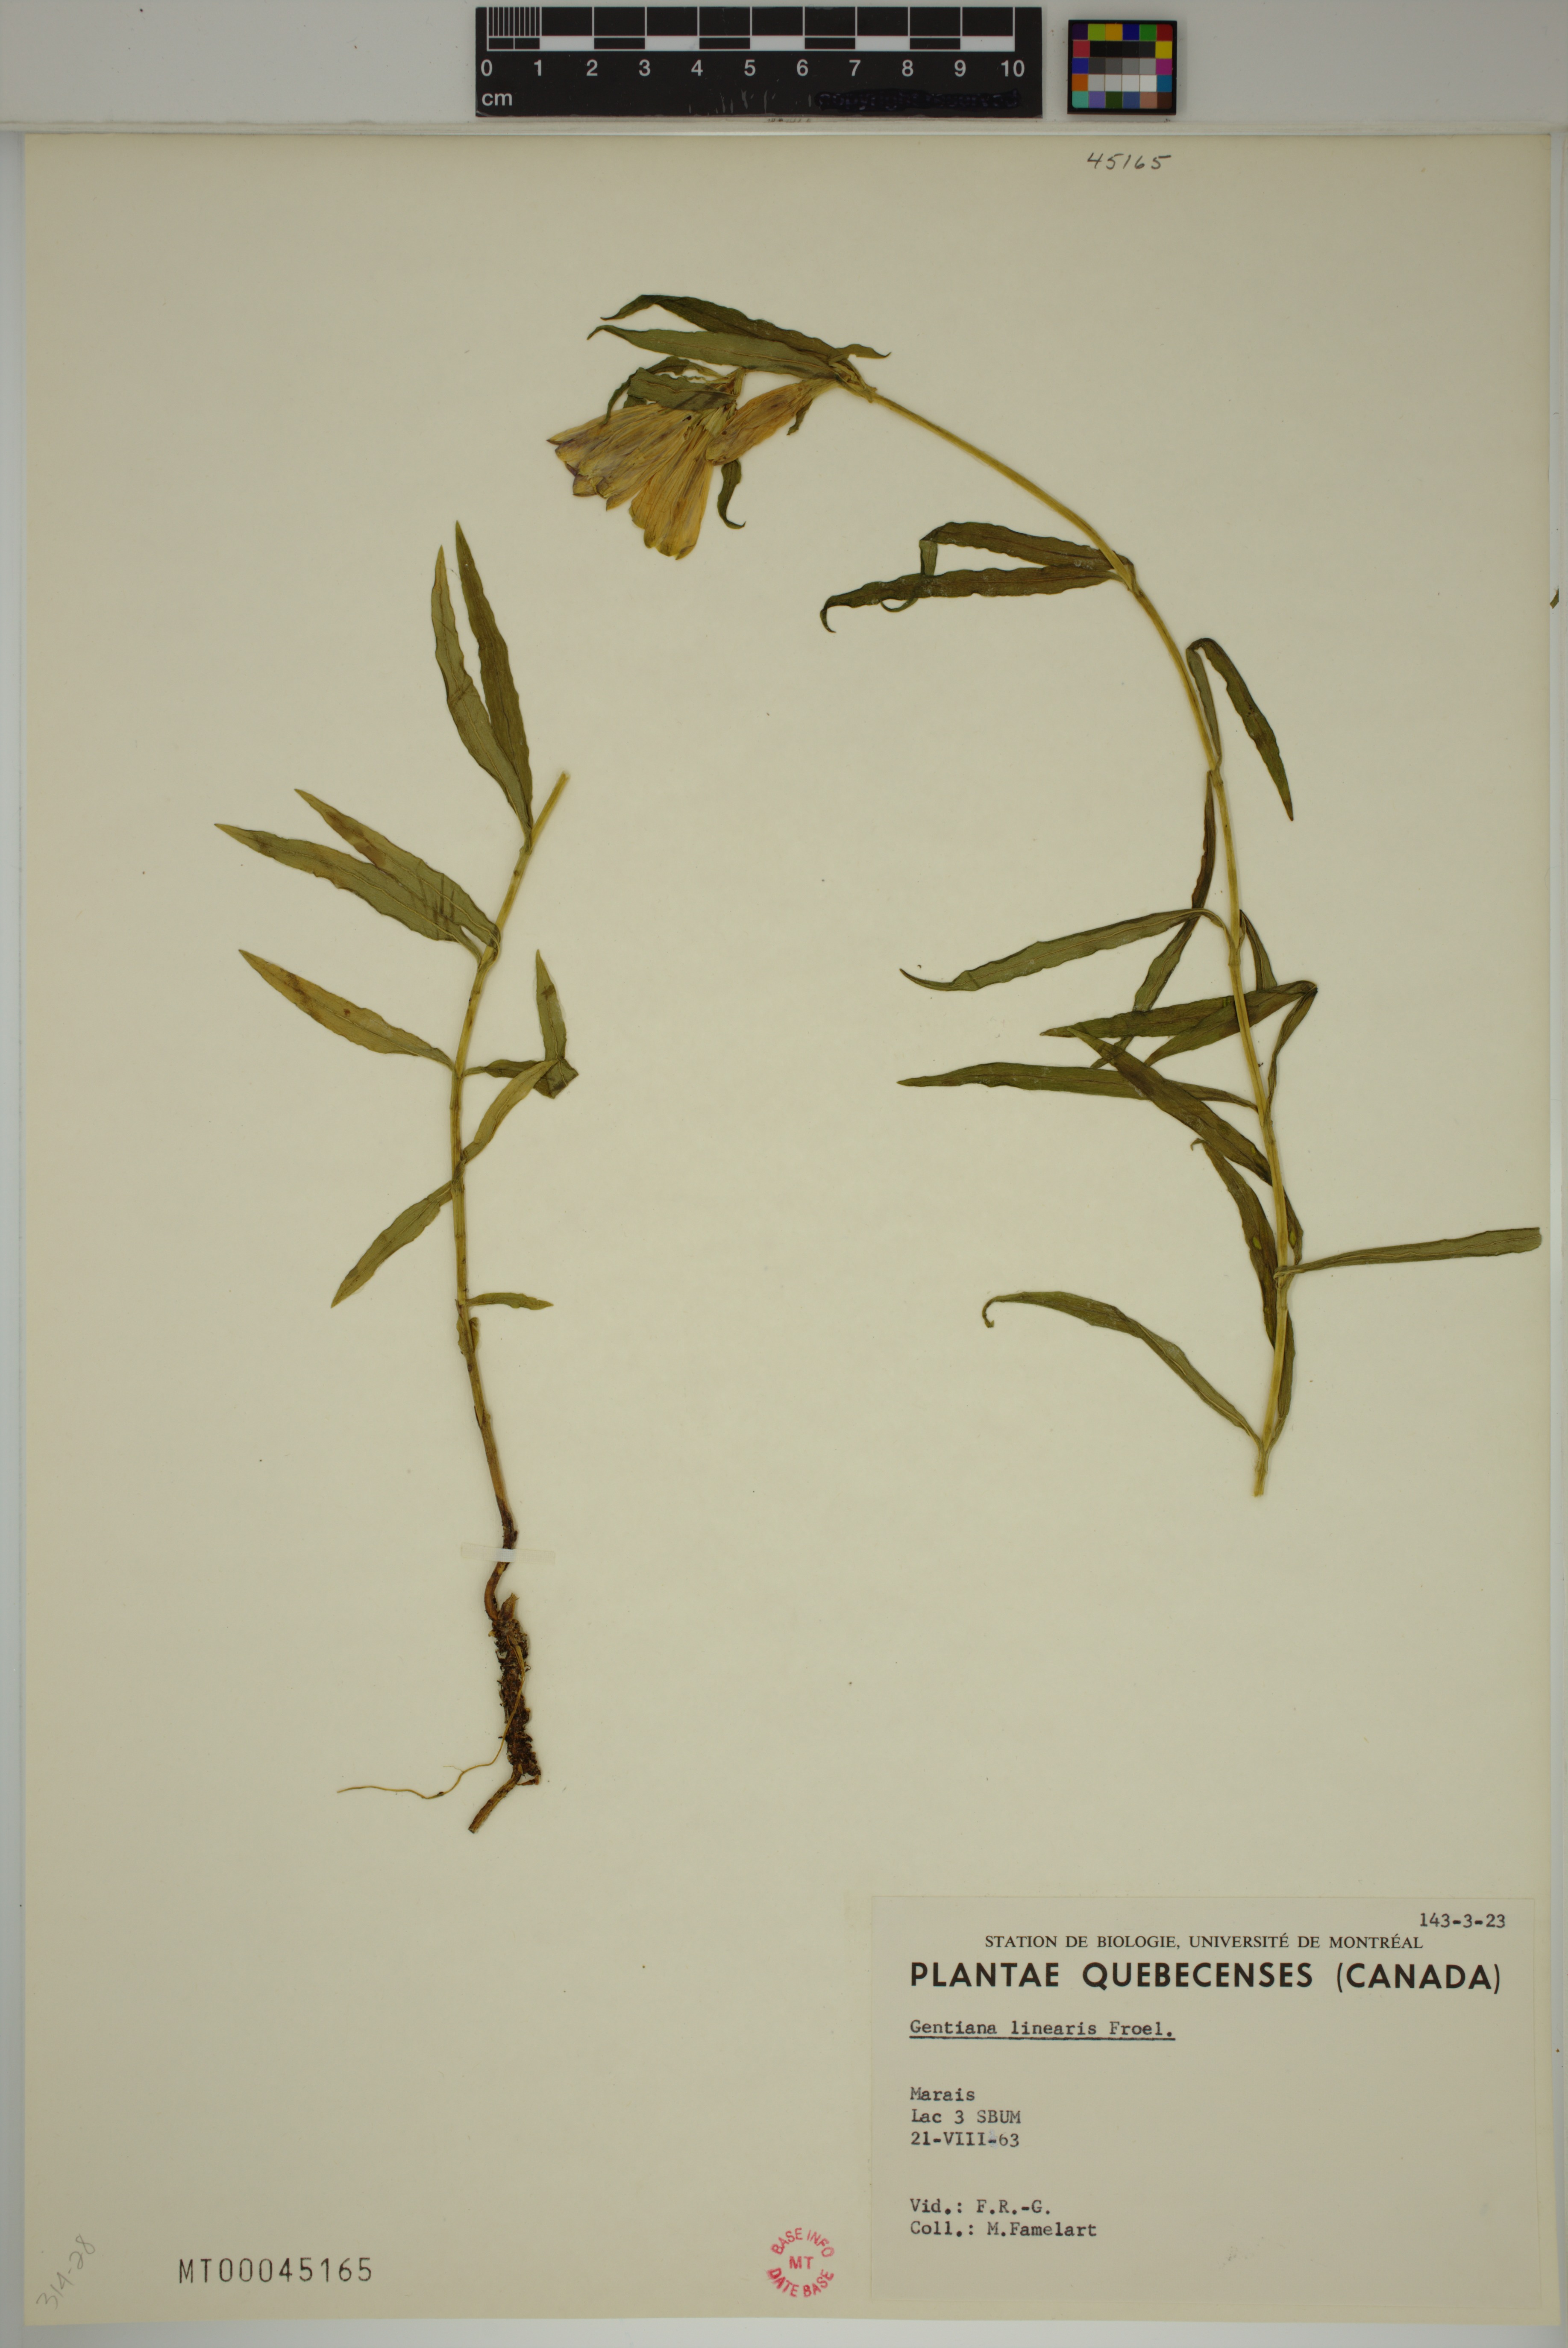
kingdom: Plantae
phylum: Tracheophyta
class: Magnoliopsida
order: Gentianales
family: Gentianaceae
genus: Gentiana
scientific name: Gentiana linearis
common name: Bastard gentian
